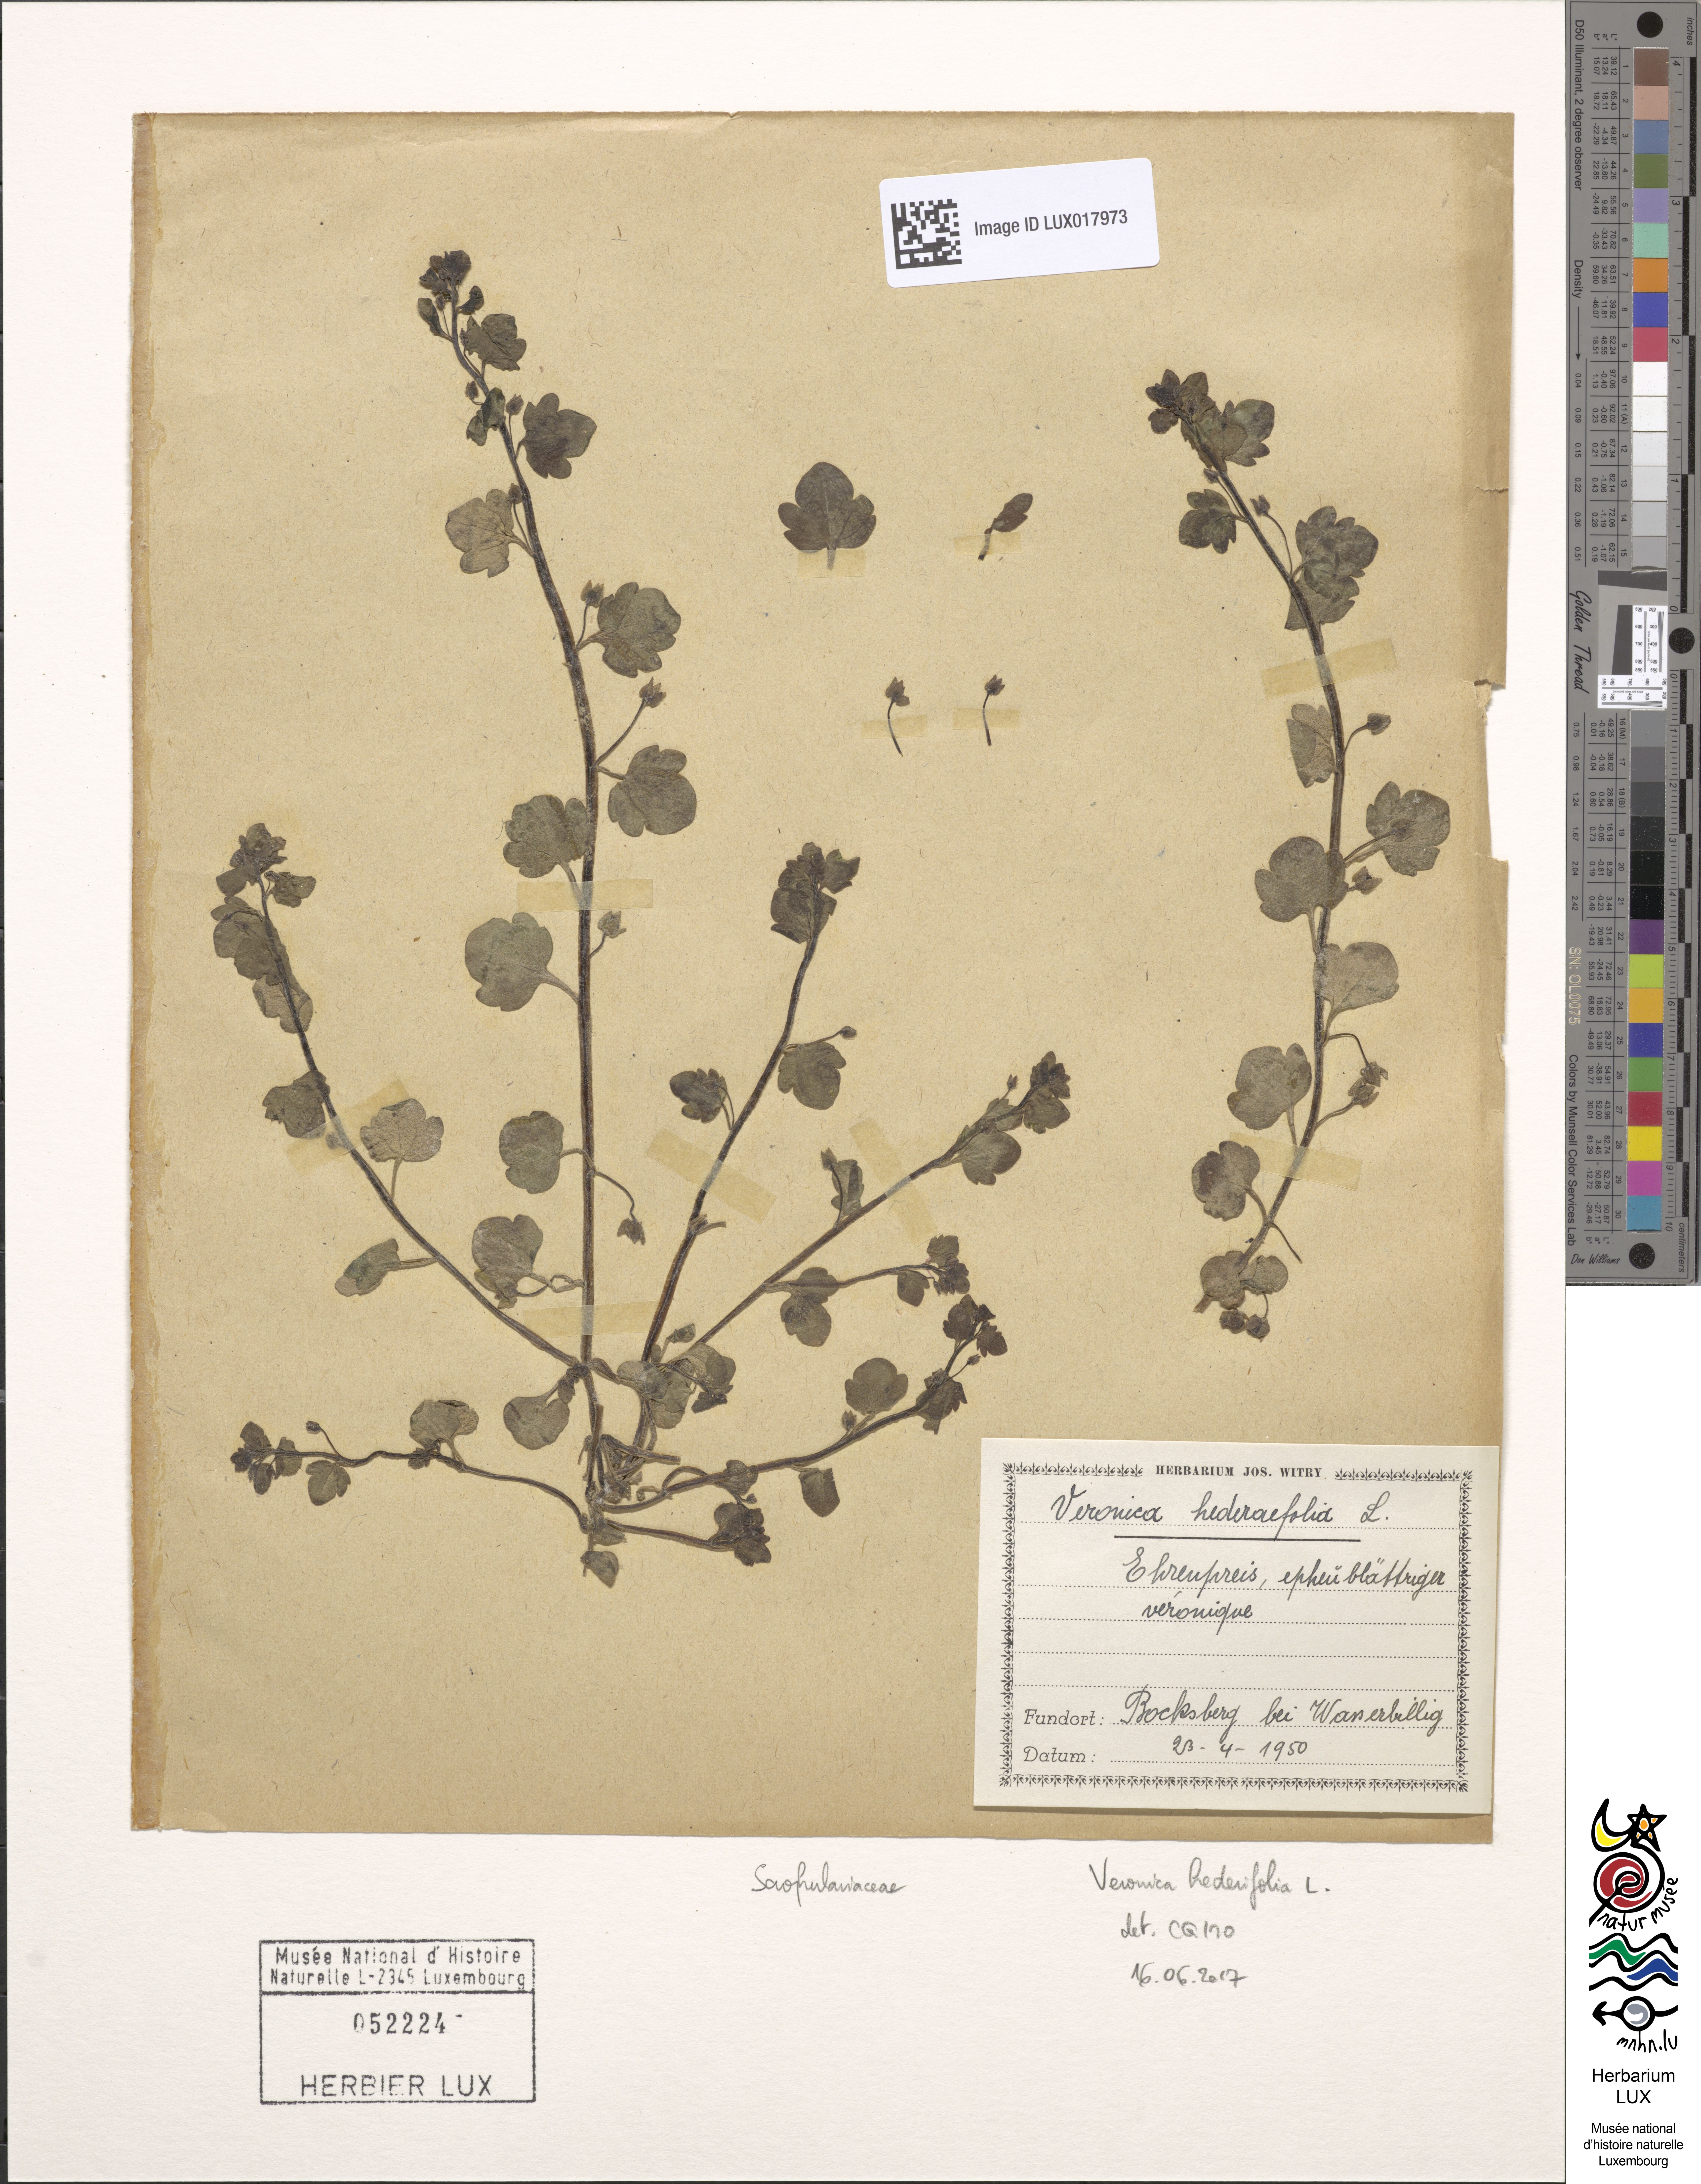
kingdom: Plantae
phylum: Tracheophyta
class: Magnoliopsida
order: Lamiales
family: Plantaginaceae
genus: Veronica
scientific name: Veronica hederifolia
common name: Ivy-leaved speedwell
